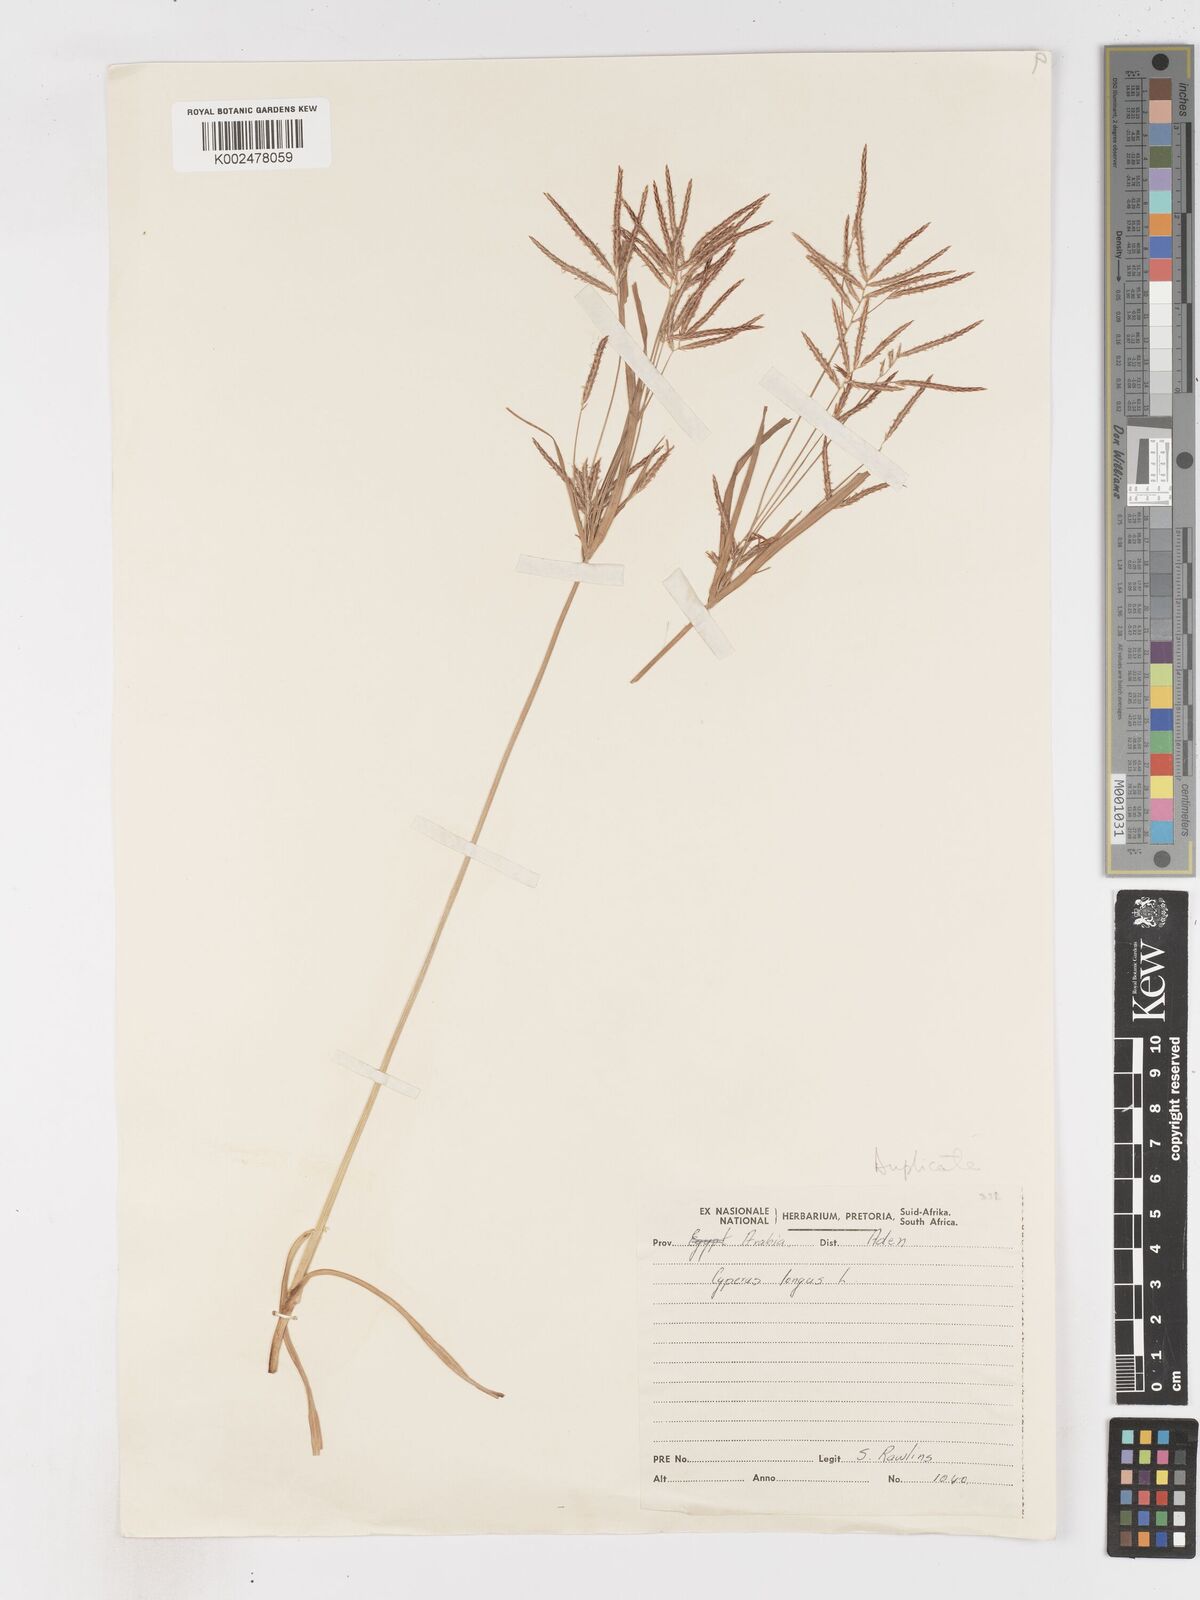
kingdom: Plantae
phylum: Tracheophyta
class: Liliopsida
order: Poales
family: Cyperaceae
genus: Cyperus
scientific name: Cyperus rotundus
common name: Nutgrass
